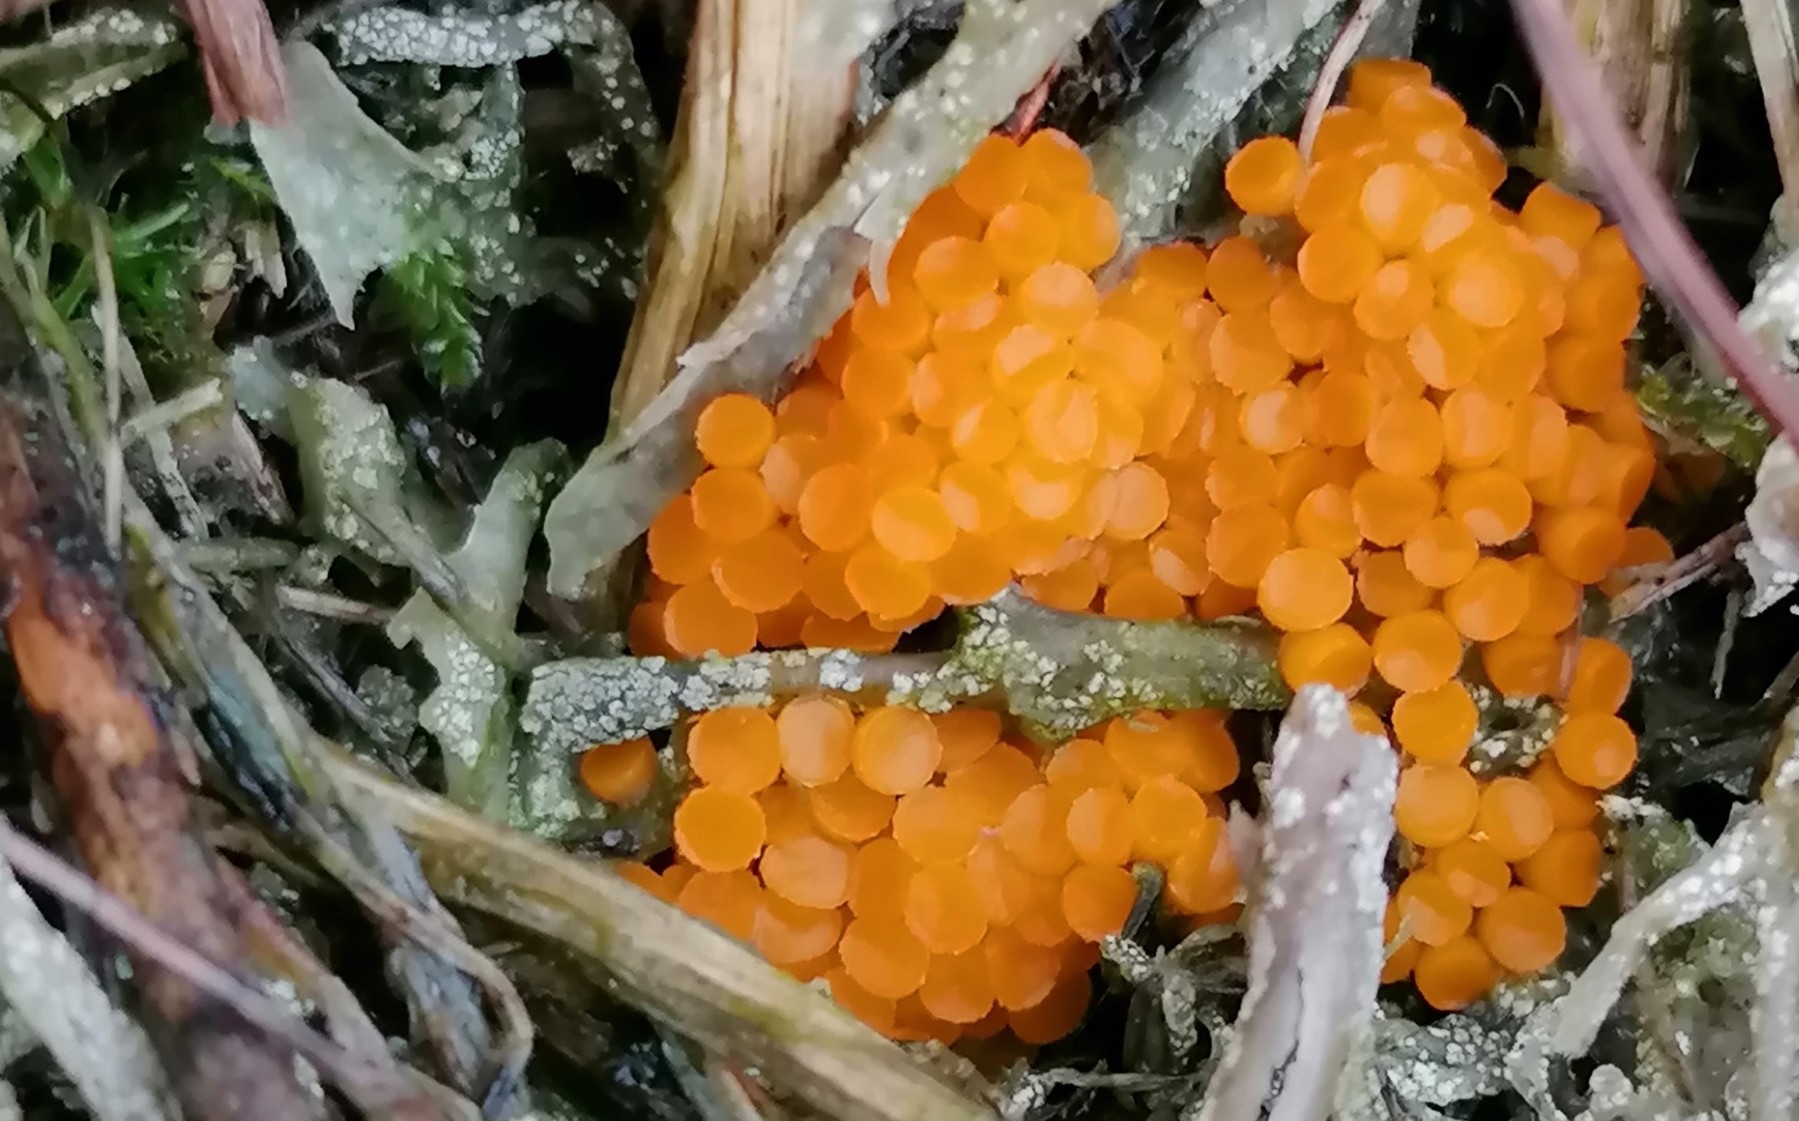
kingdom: Fungi
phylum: Ascomycota
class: Pezizomycetes
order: Pezizales
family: Pyronemataceae
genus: Byssonectria
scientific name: Byssonectria terrestris
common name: hjortebæger
